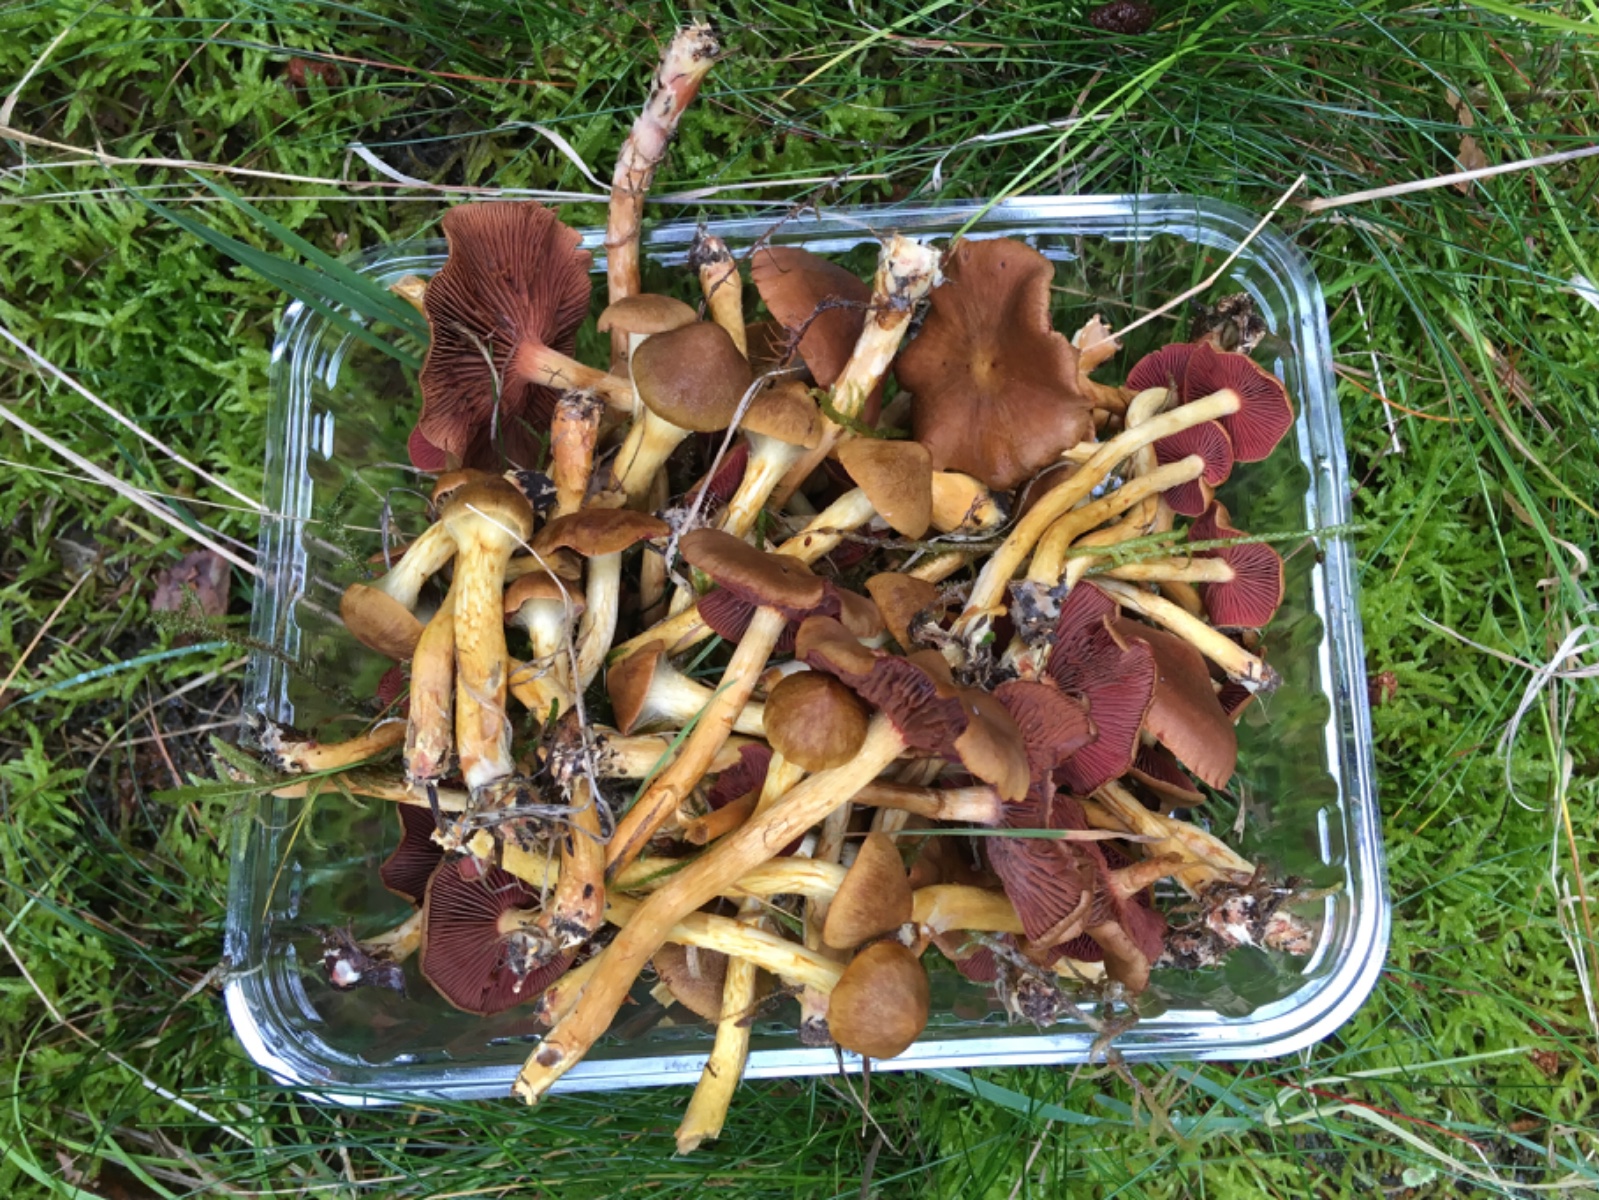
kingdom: Fungi
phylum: Basidiomycota
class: Agaricomycetes
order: Agaricales
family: Cortinariaceae
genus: Cortinarius
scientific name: Cortinarius
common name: cinnoberbladet slørhat
